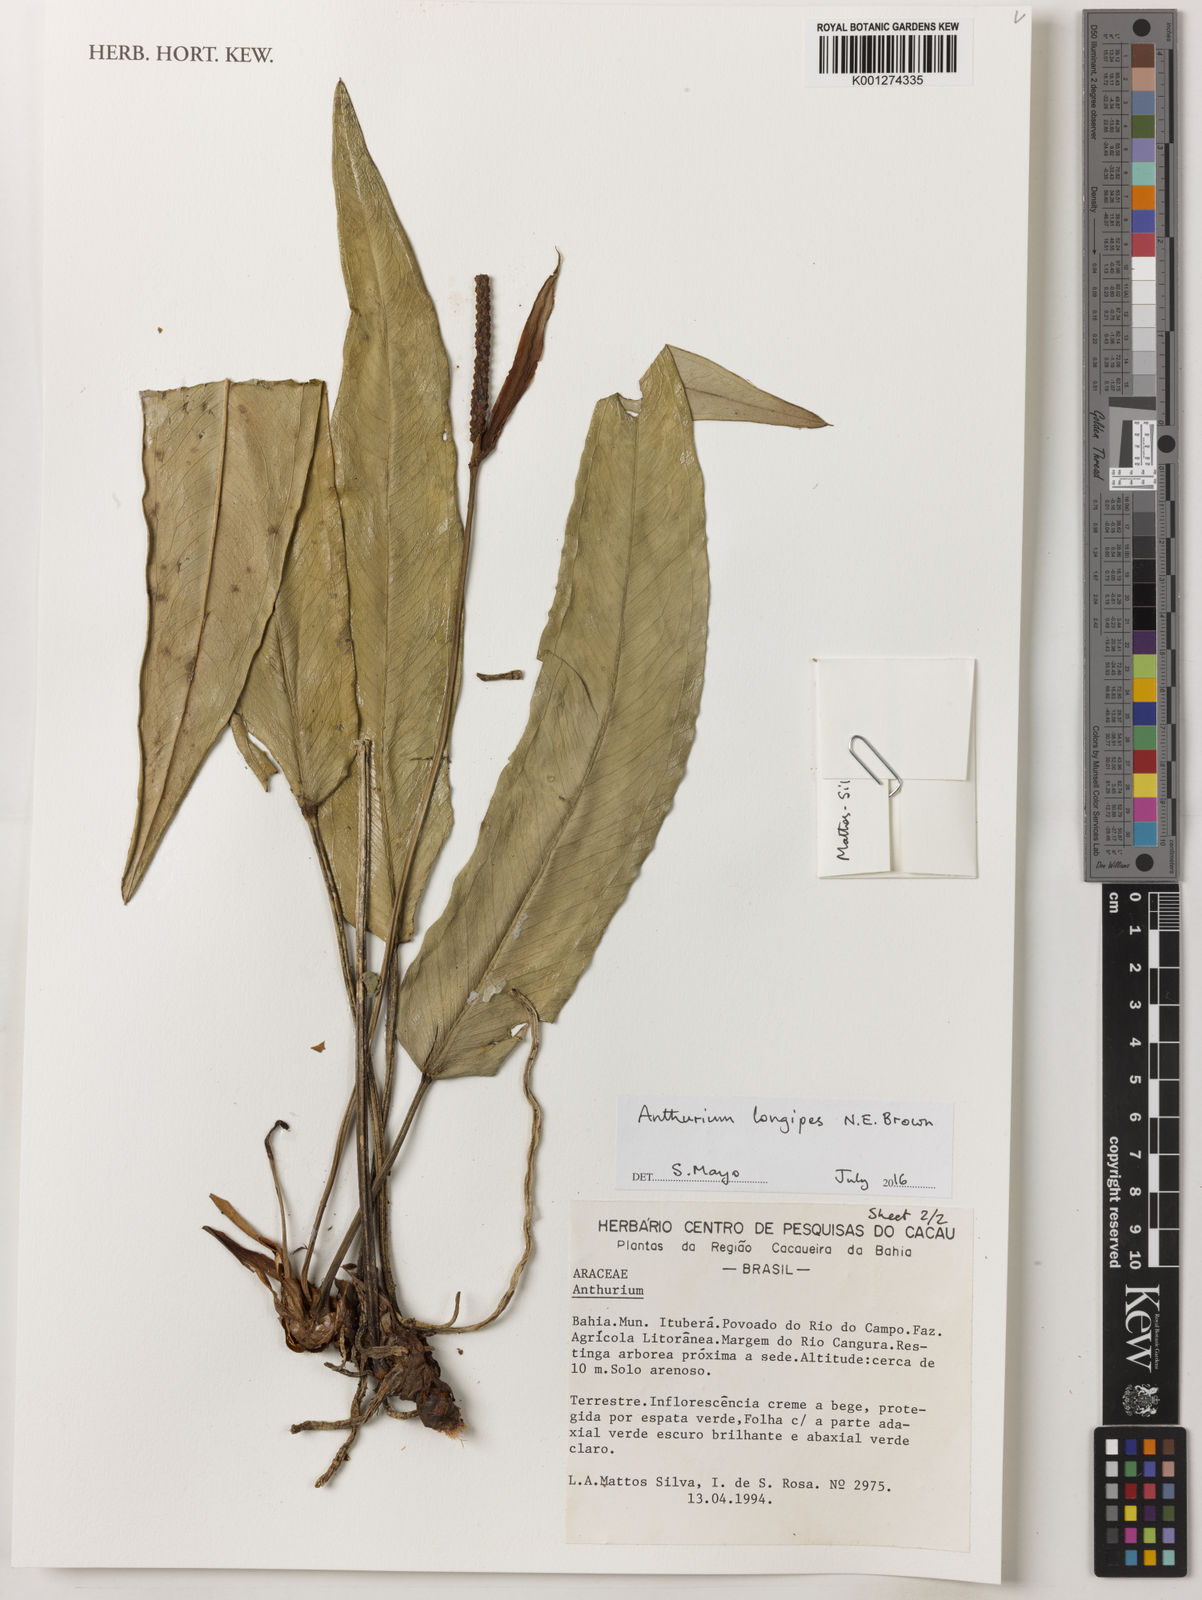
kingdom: Plantae
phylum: Tracheophyta
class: Liliopsida
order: Alismatales
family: Araceae
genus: Anthurium
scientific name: Anthurium clidemioides
